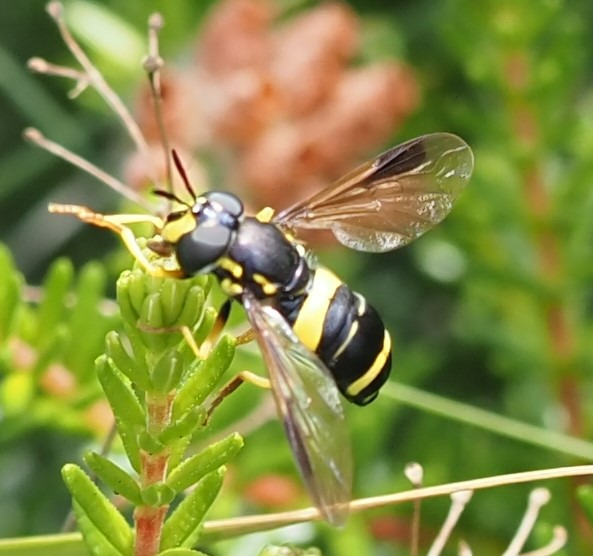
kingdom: Animalia
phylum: Arthropoda
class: Insecta
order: Diptera
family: Syrphidae
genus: Chrysotoxum
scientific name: Chrysotoxum bicincta
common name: Tobåndet hvepsesvirreflue
